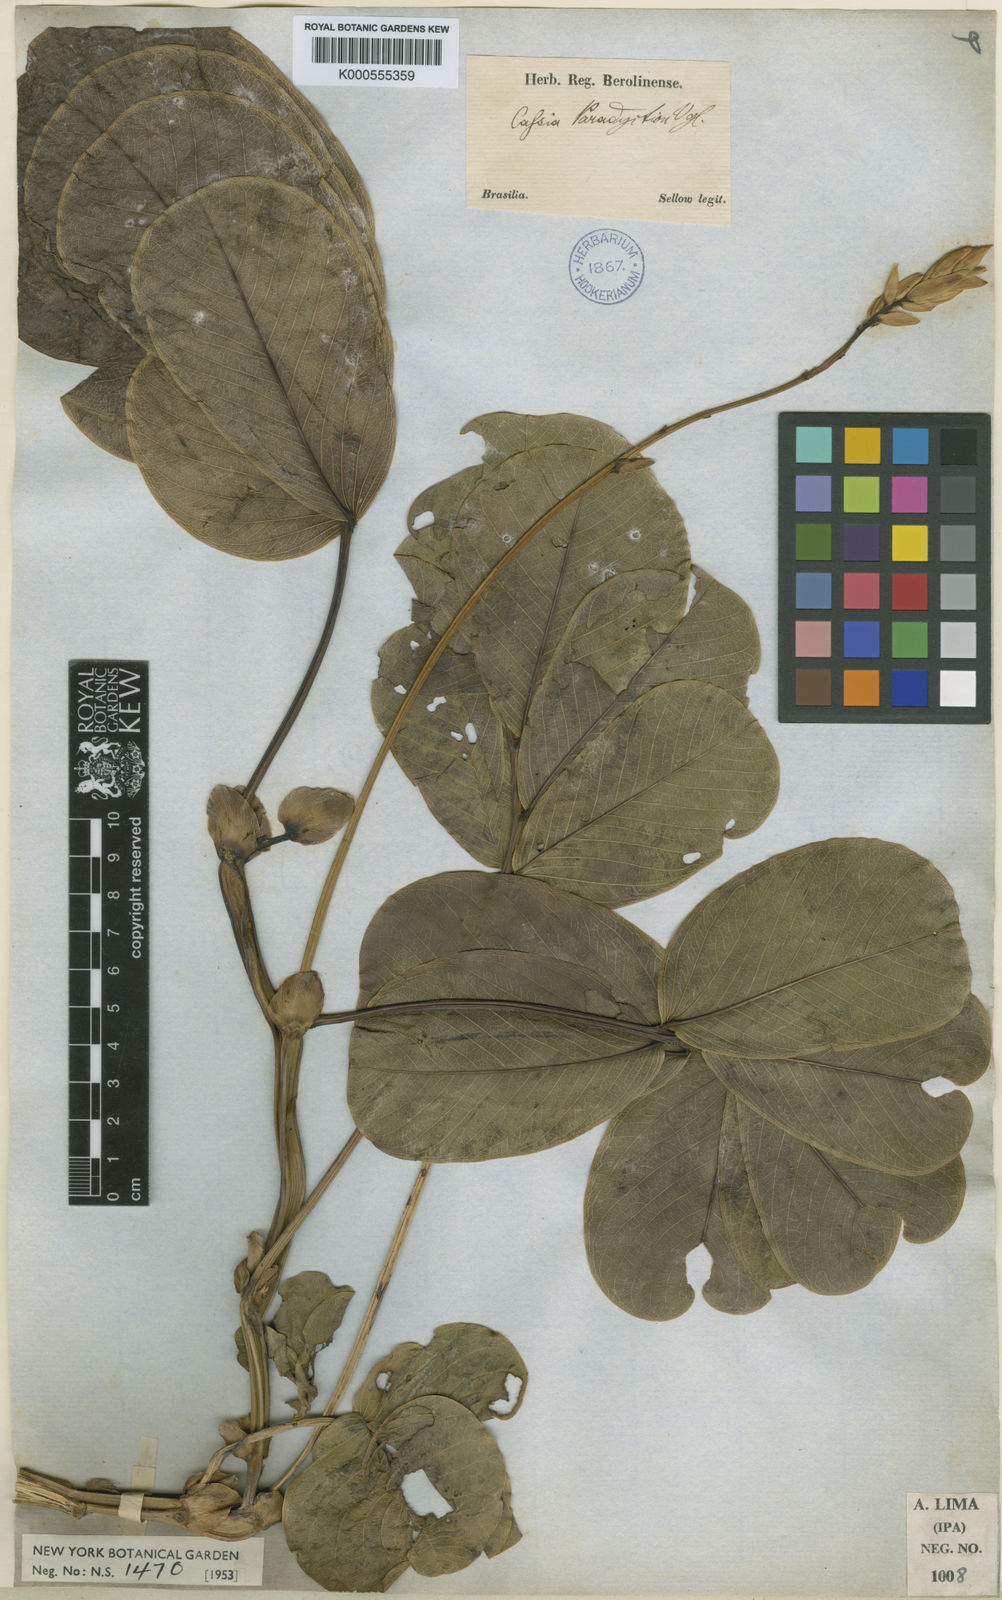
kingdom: Plantae
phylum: Tracheophyta
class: Magnoliopsida
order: Fabales
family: Fabaceae
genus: Senna
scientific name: Senna
